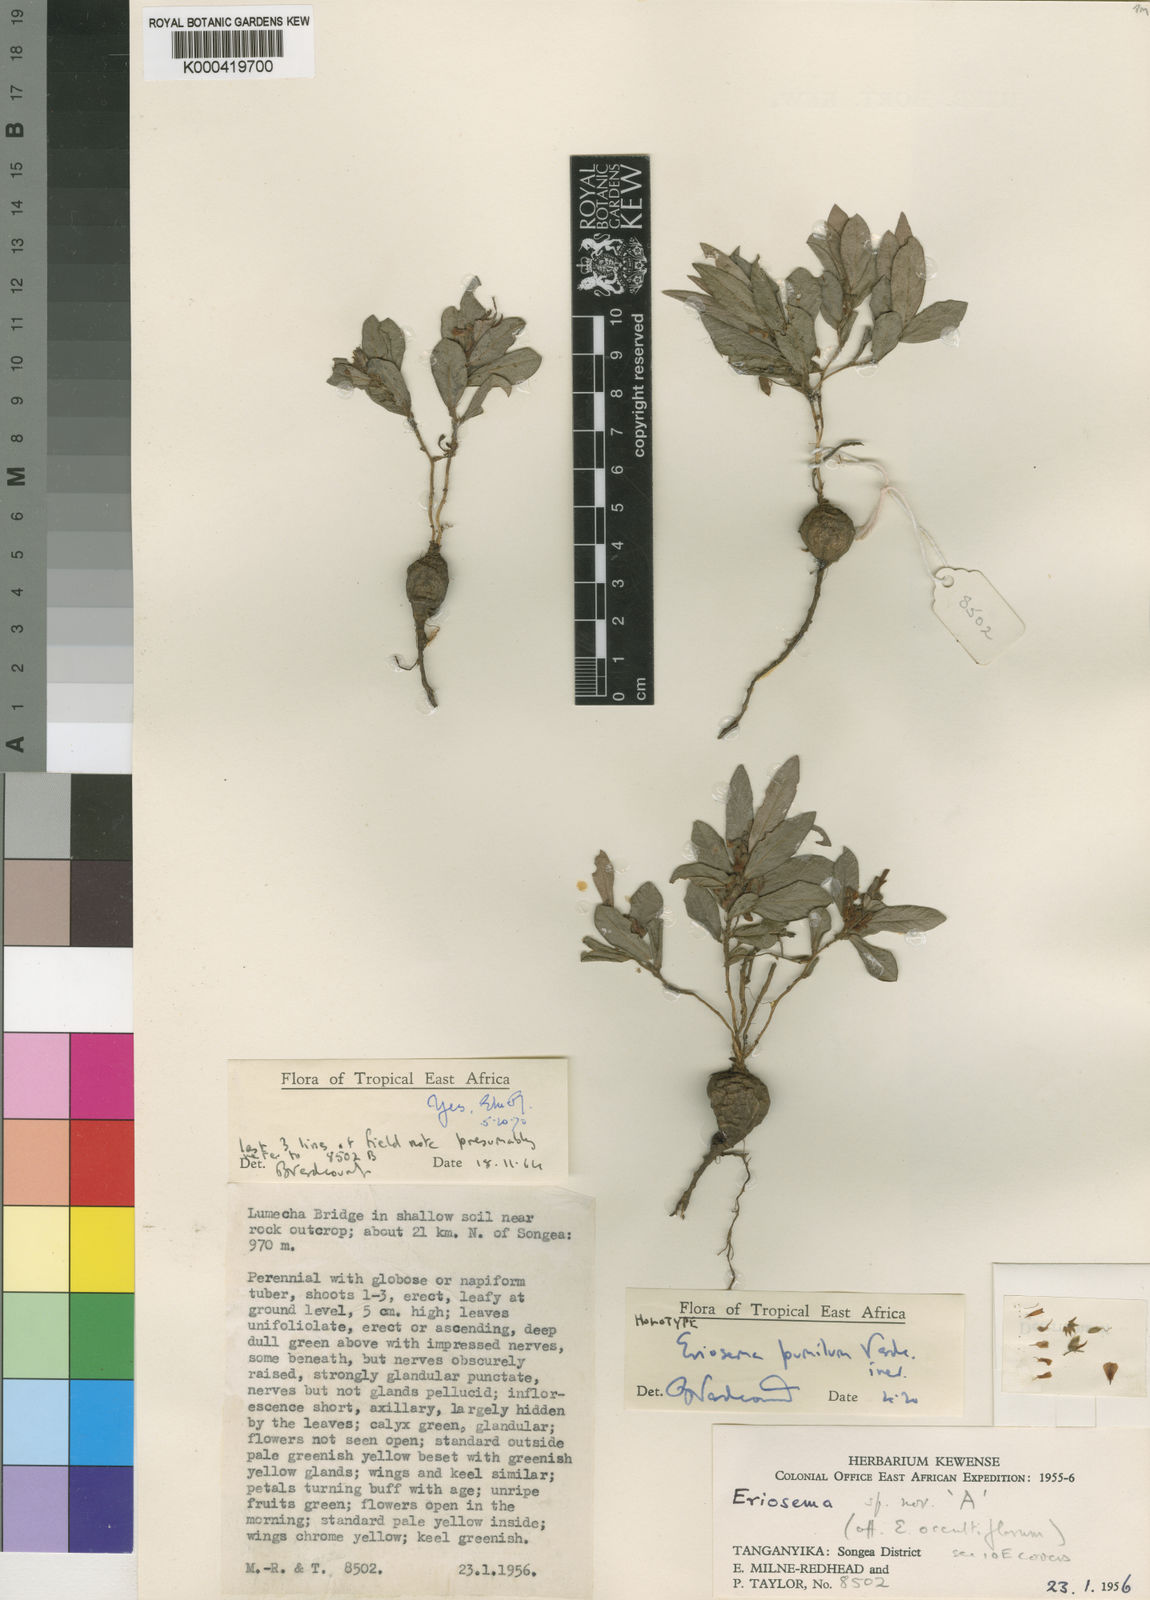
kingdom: Plantae
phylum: Tracheophyta
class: Magnoliopsida
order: Fabales
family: Fabaceae
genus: Eriosema
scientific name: Eriosema pumilum
